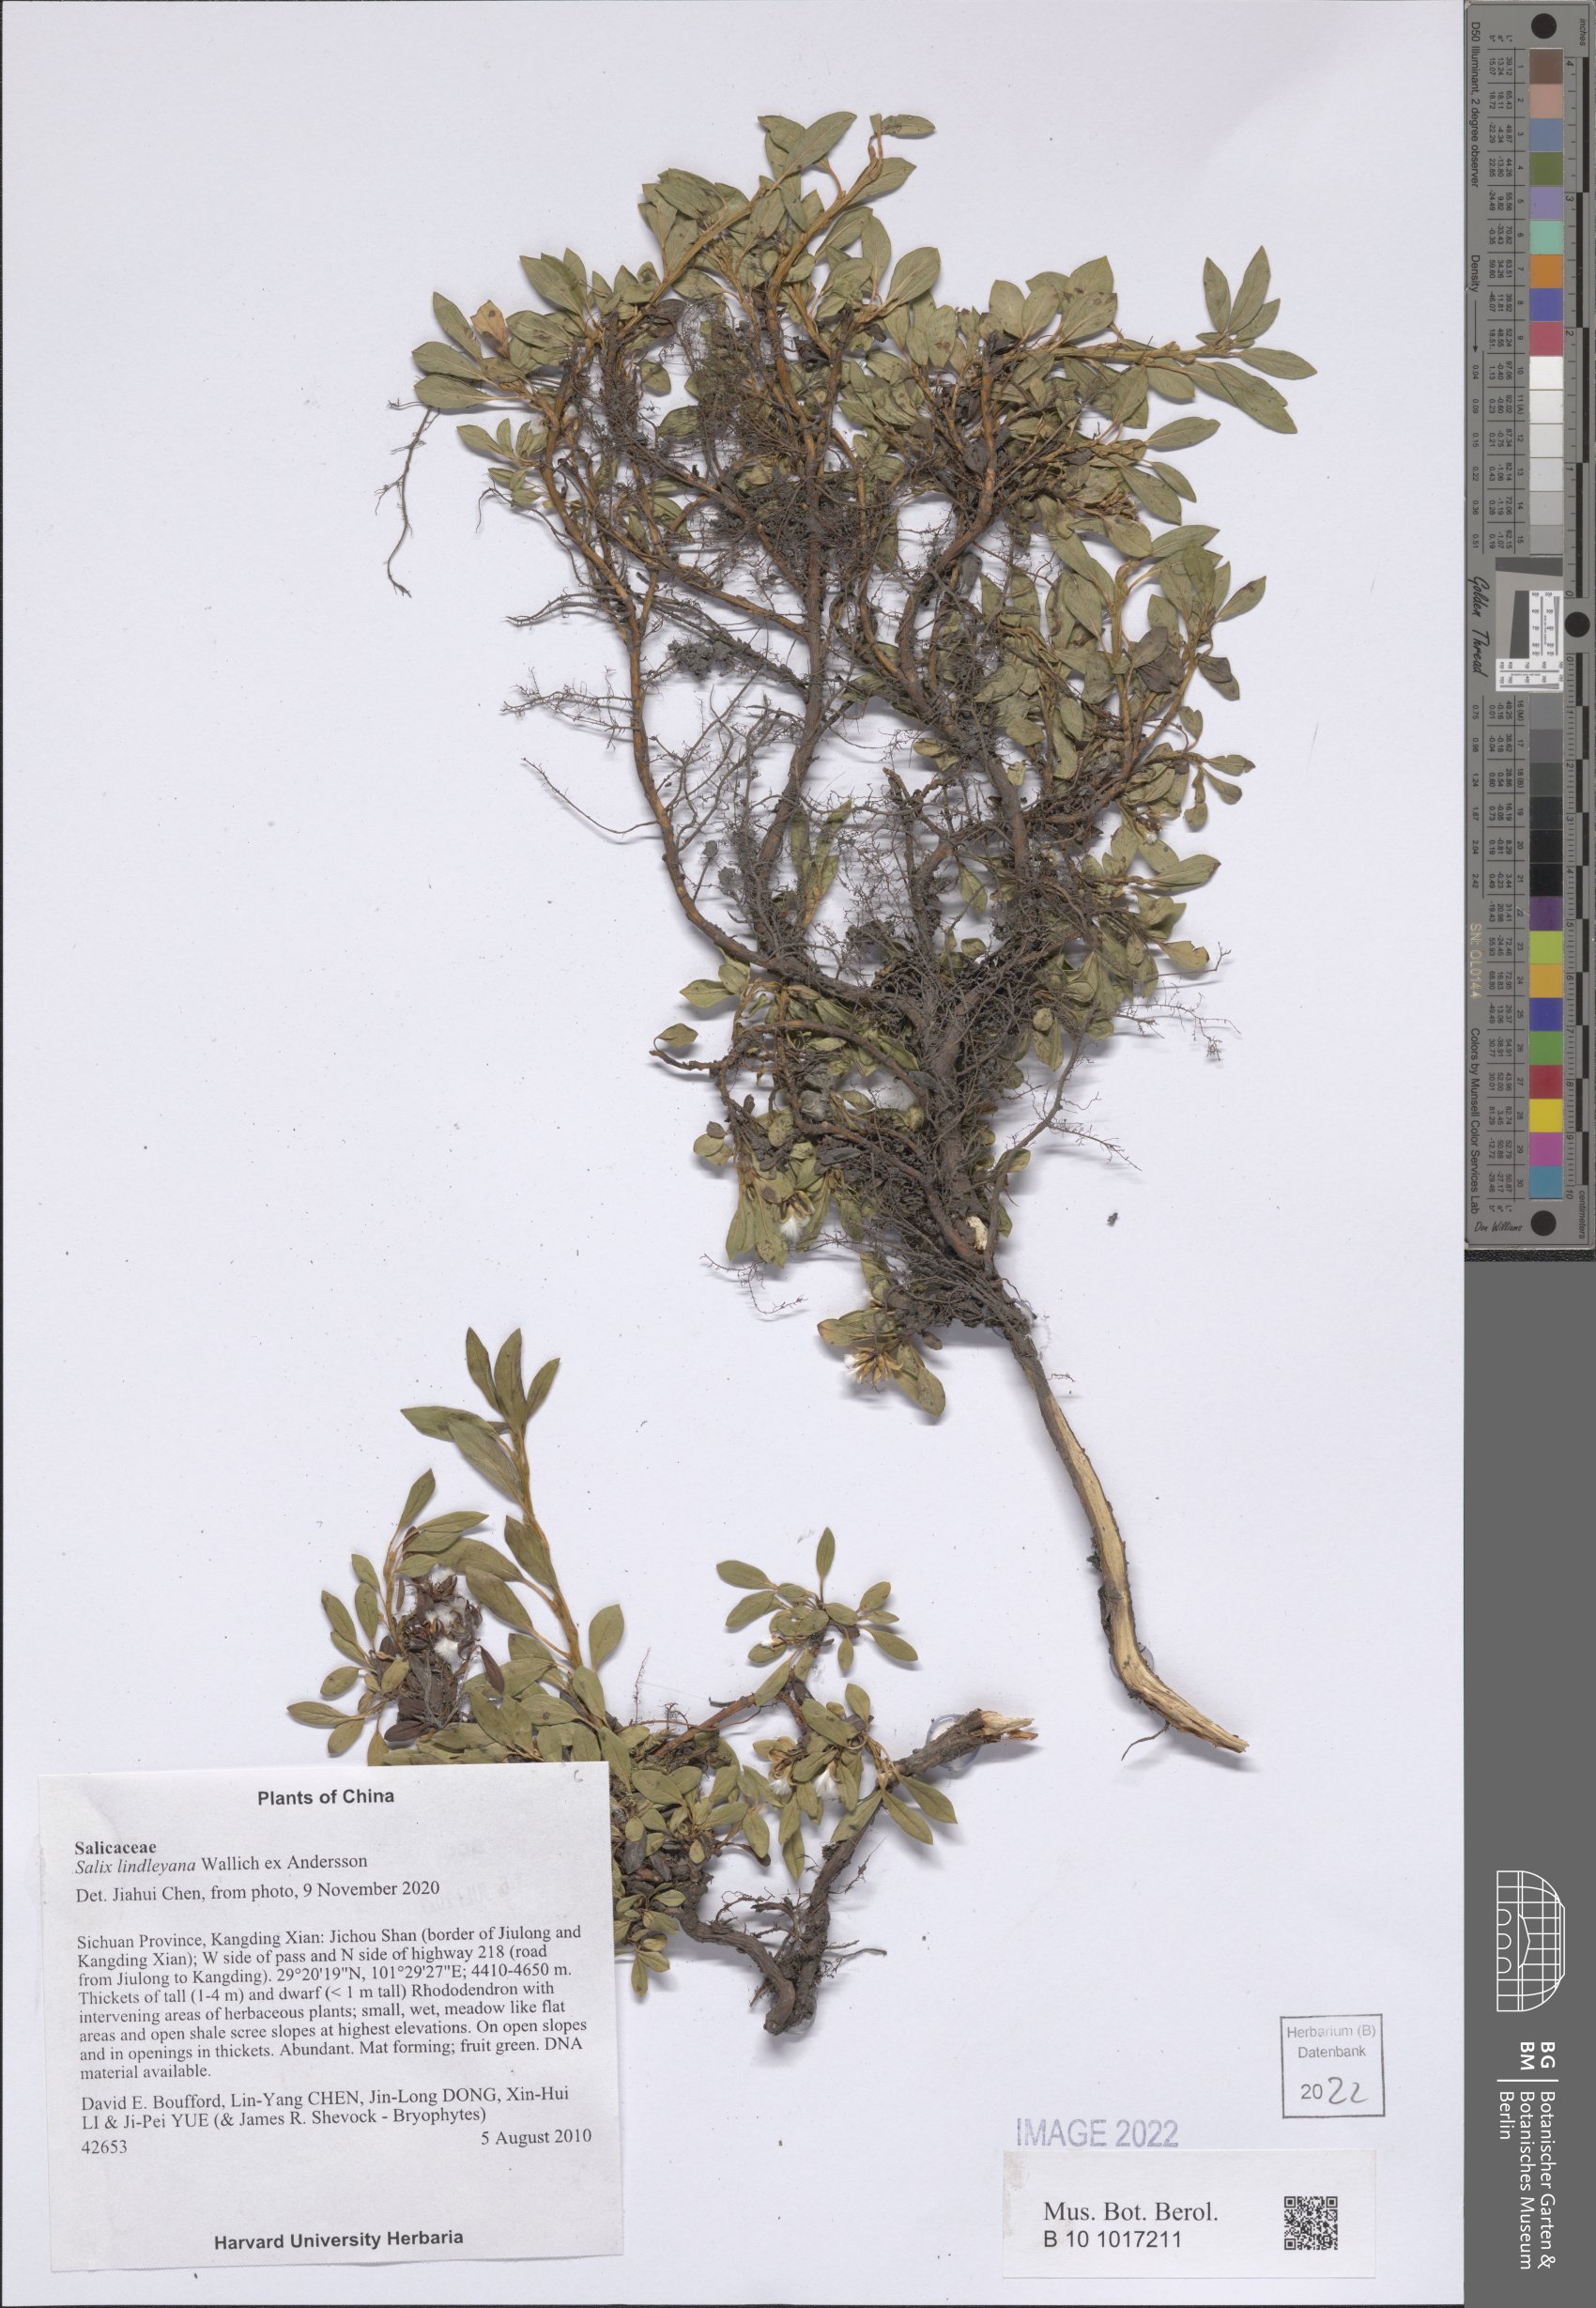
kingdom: Plantae
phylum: Tracheophyta
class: Magnoliopsida
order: Malpighiales
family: Salicaceae
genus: Salix
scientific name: Salix lindleyana
